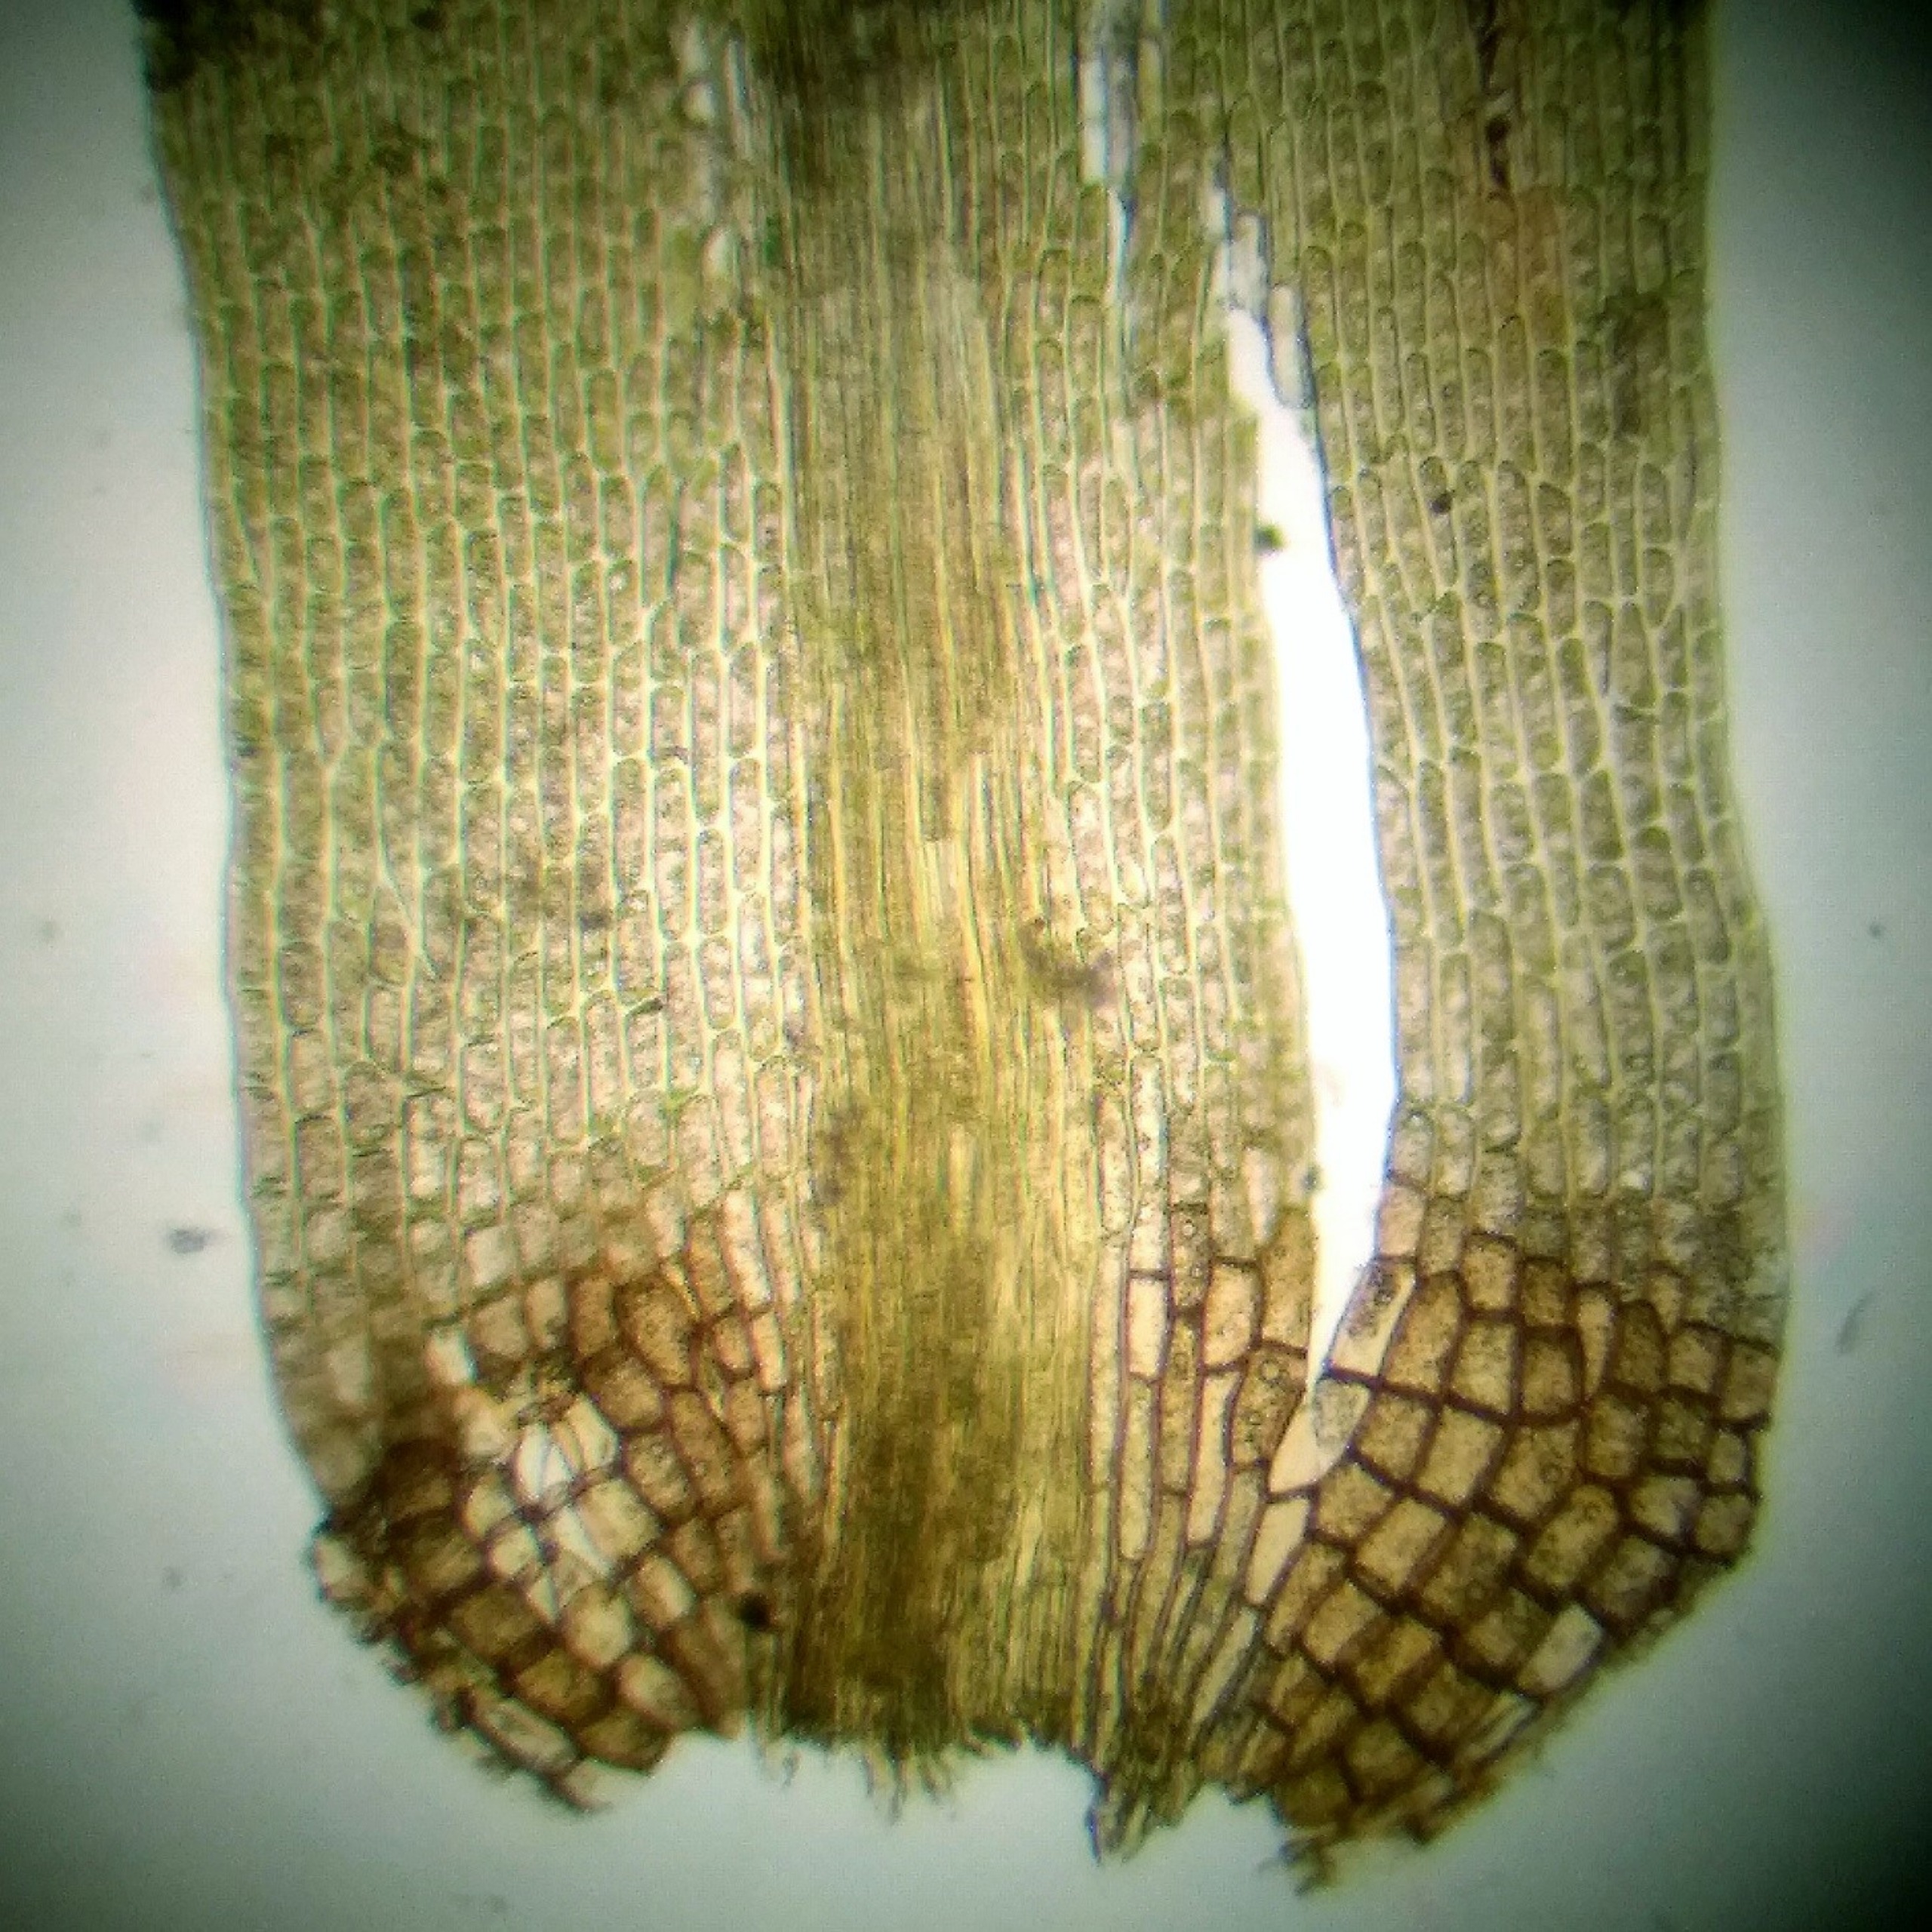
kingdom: Plantae
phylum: Bryophyta
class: Bryopsida
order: Dicranales
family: Dicranaceae
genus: Orthodicranum
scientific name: Orthodicranum flagellare
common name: Mangegrenet tyndvinge
